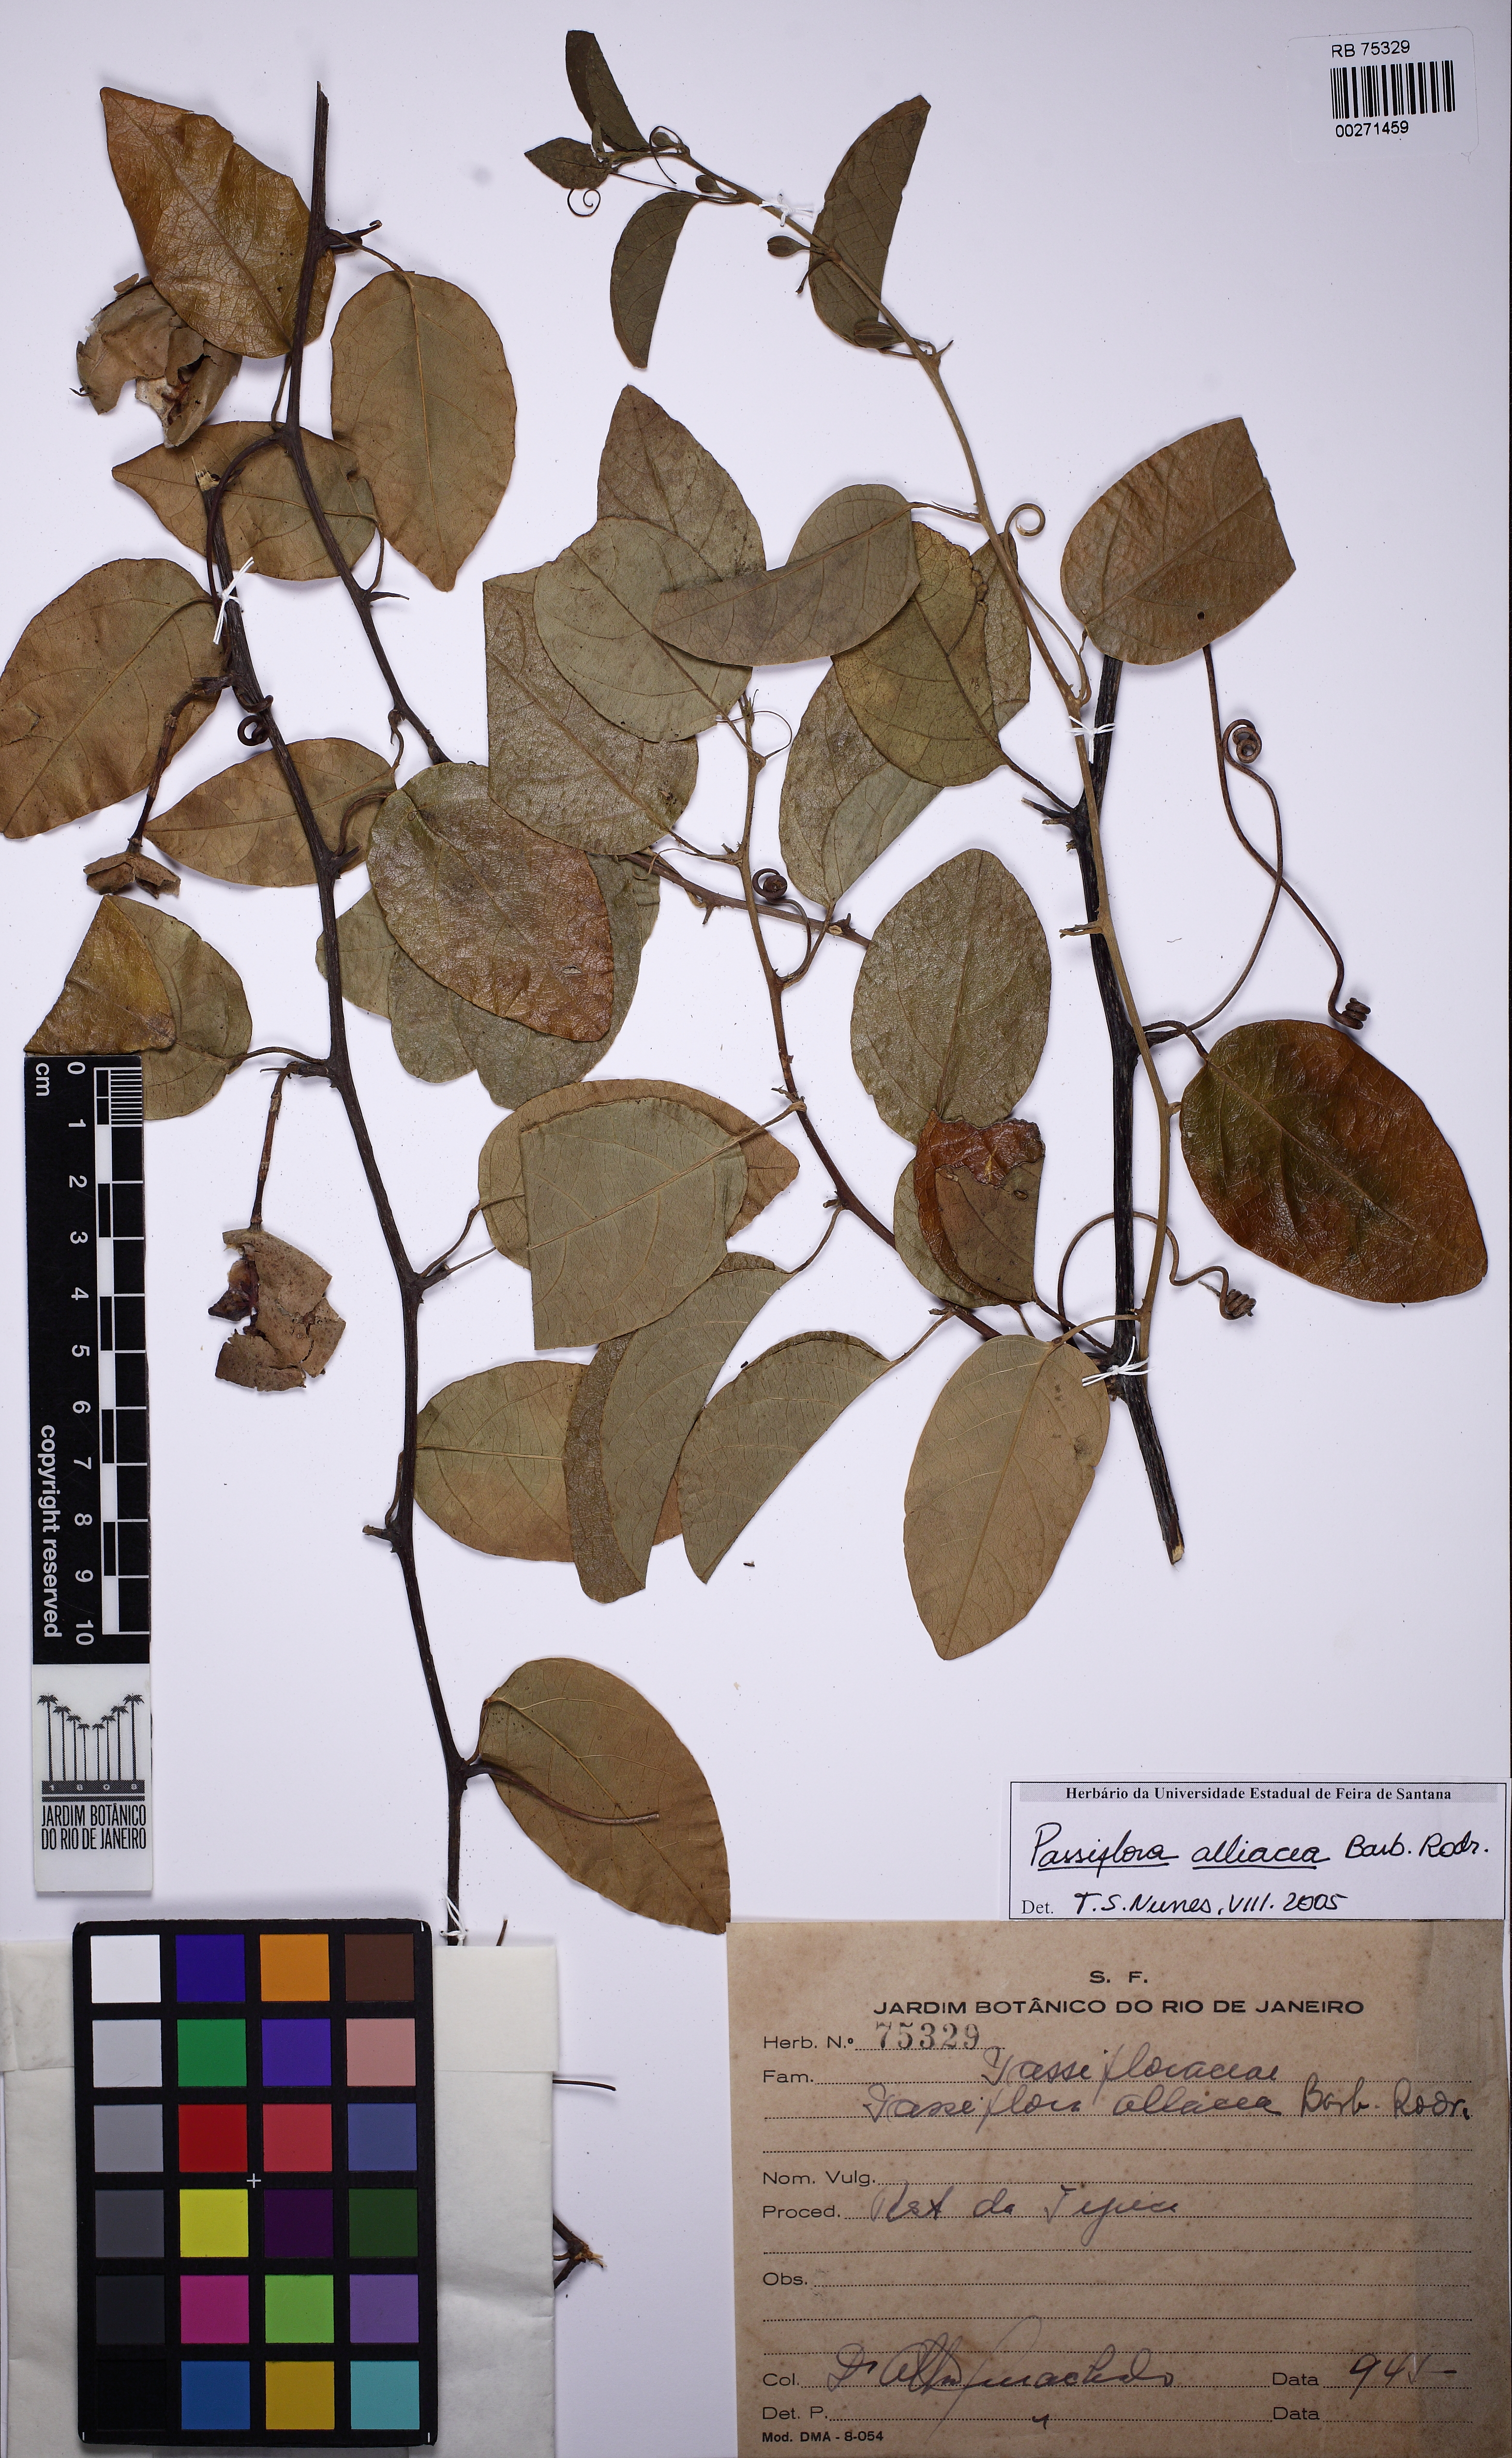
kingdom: Plantae
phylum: Tracheophyta
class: Magnoliopsida
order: Malpighiales
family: Passifloraceae
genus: Passiflora
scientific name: Passiflora pentagona
